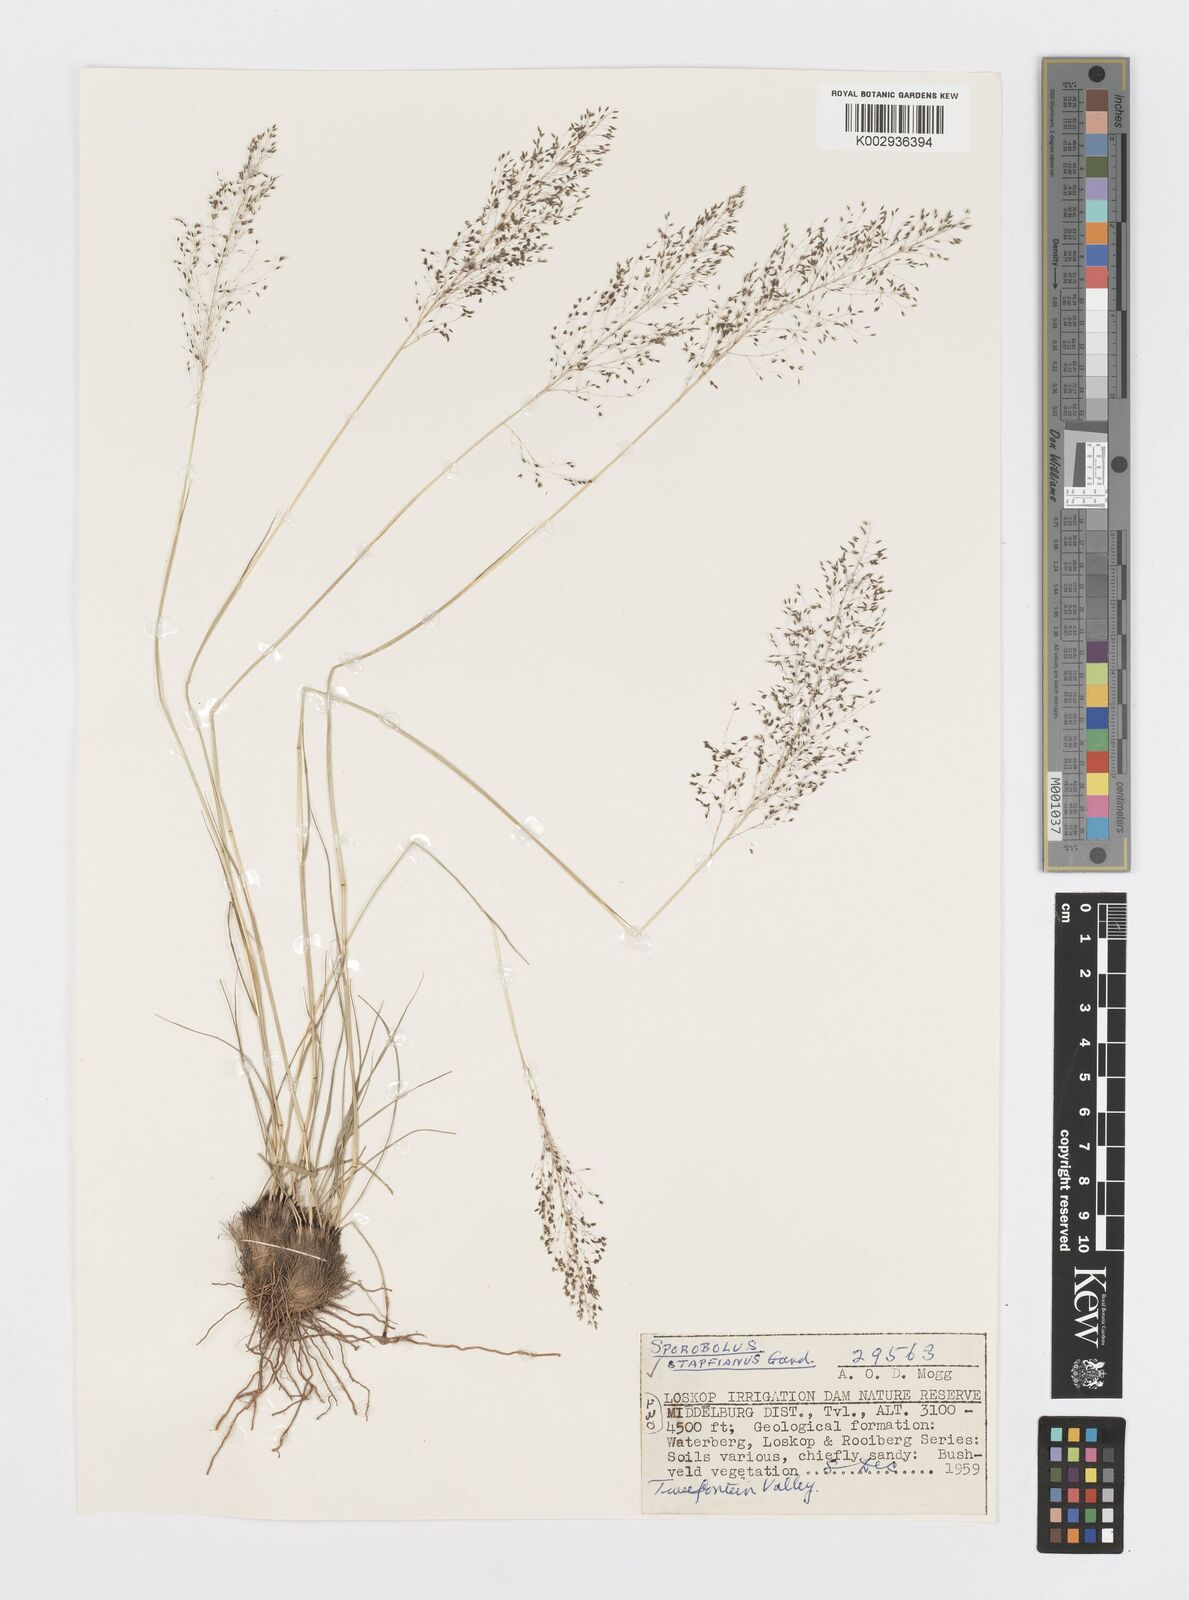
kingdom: Plantae
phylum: Tracheophyta
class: Liliopsida
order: Poales
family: Poaceae
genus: Sporobolus
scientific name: Sporobolus stapfianus
